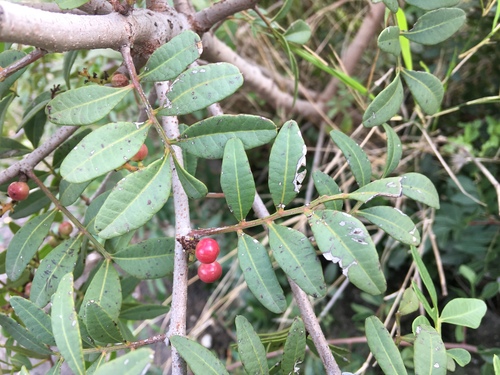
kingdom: Plantae
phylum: Tracheophyta
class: Magnoliopsida
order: Sapindales
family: Anacardiaceae
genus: Pistacia
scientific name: Pistacia lentiscus
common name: Lentisk
